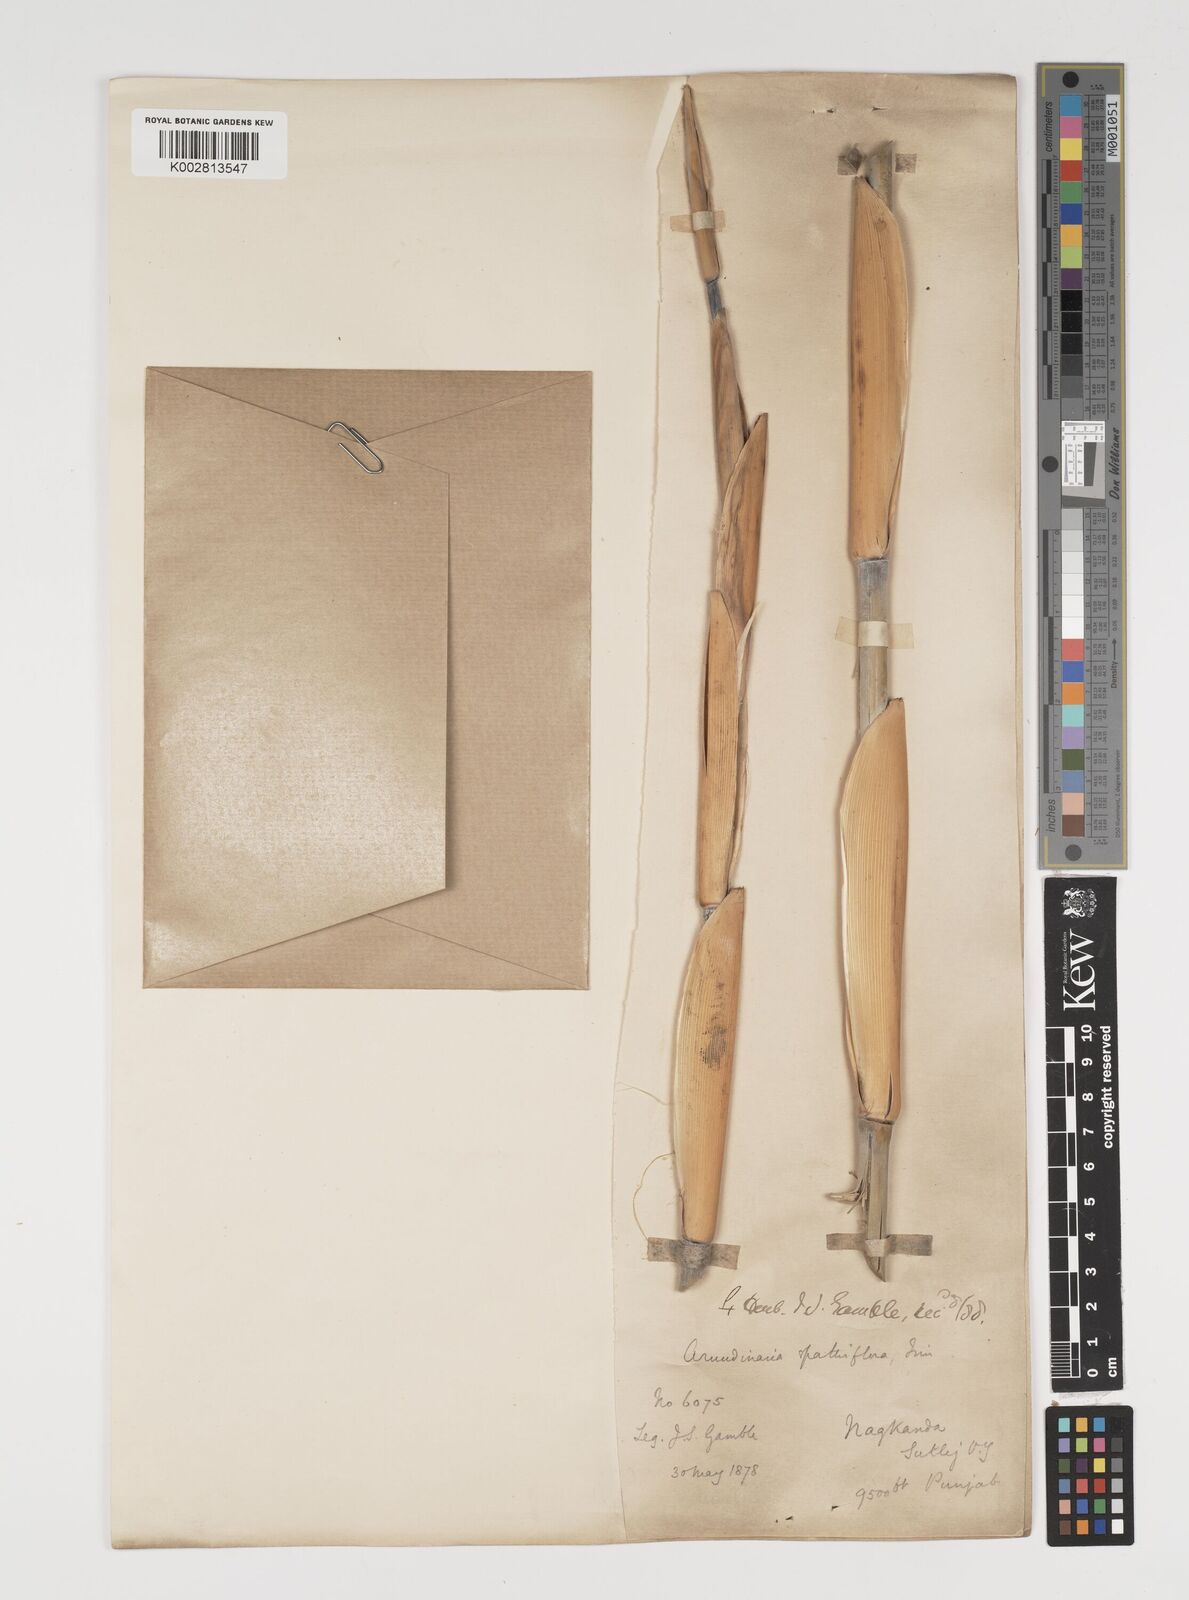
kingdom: Plantae
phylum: Tracheophyta
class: Liliopsida
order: Poales
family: Poaceae
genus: Thamnocalamus
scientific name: Thamnocalamus spathiflorus
